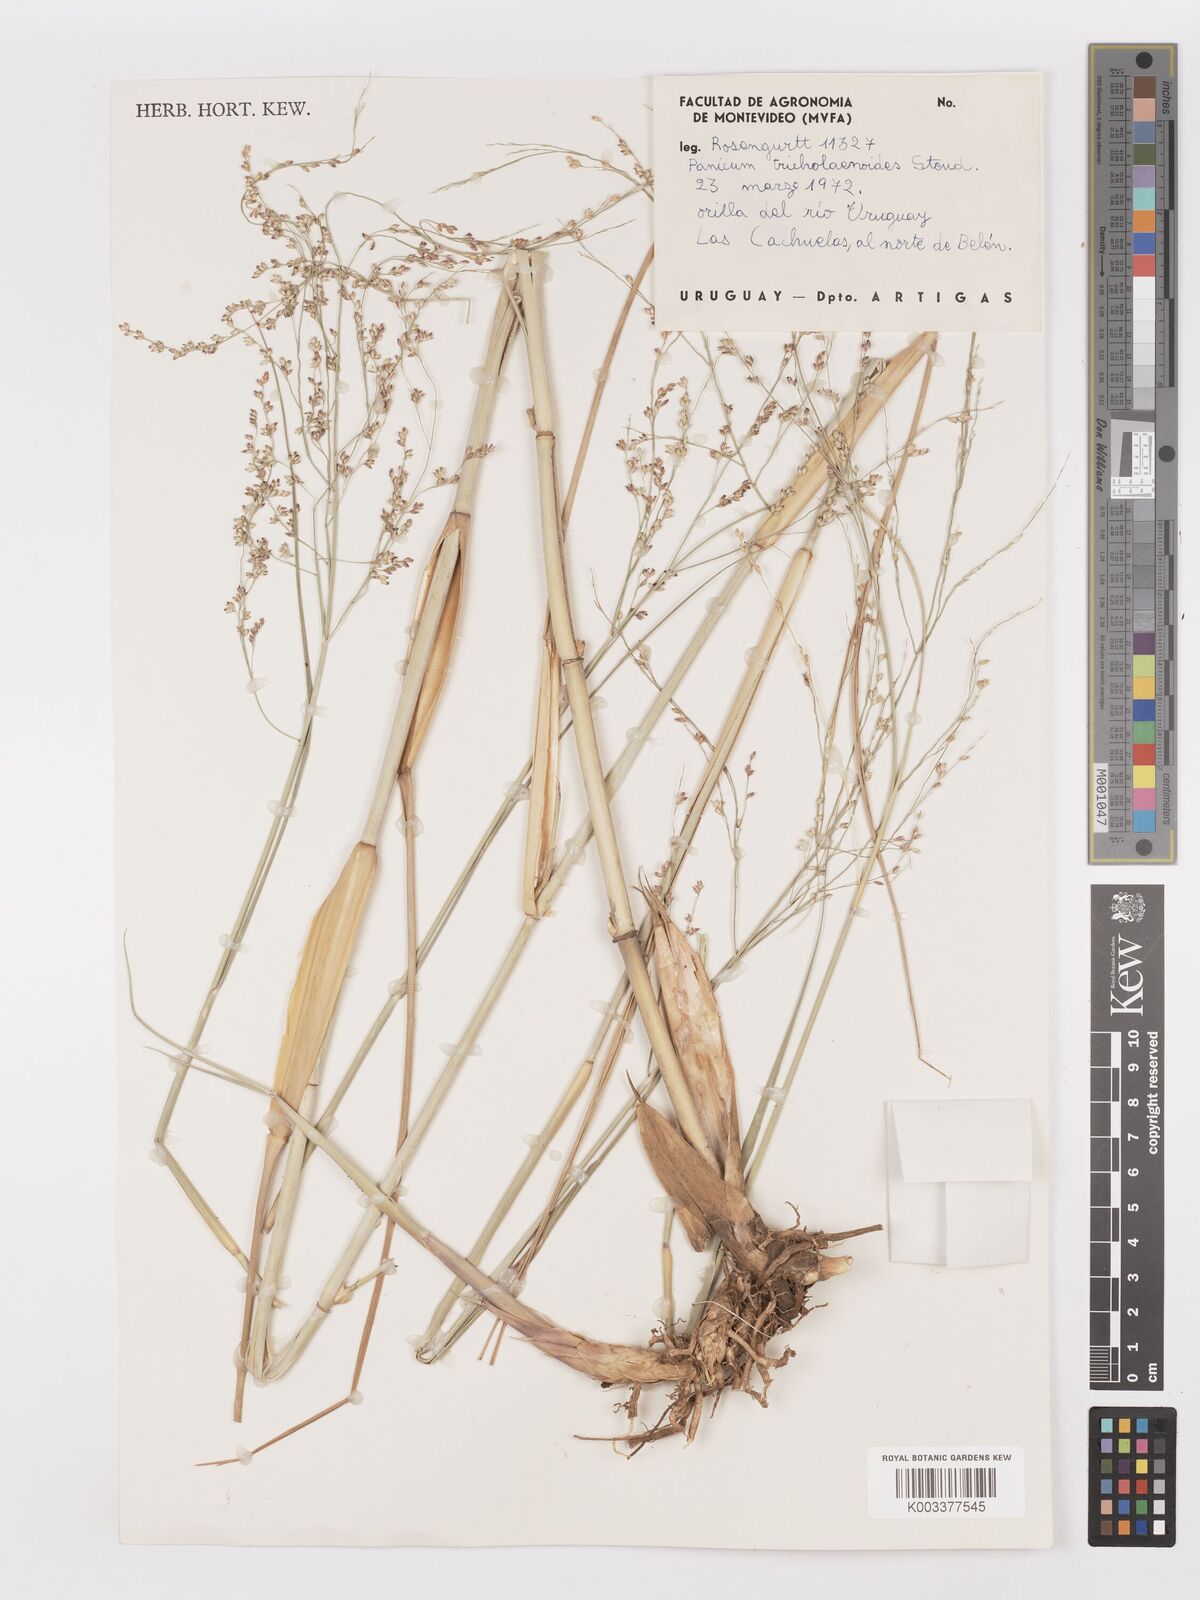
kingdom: Plantae
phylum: Tracheophyta
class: Liliopsida
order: Poales
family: Poaceae
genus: Panicum
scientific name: Panicum tricholaenoides
